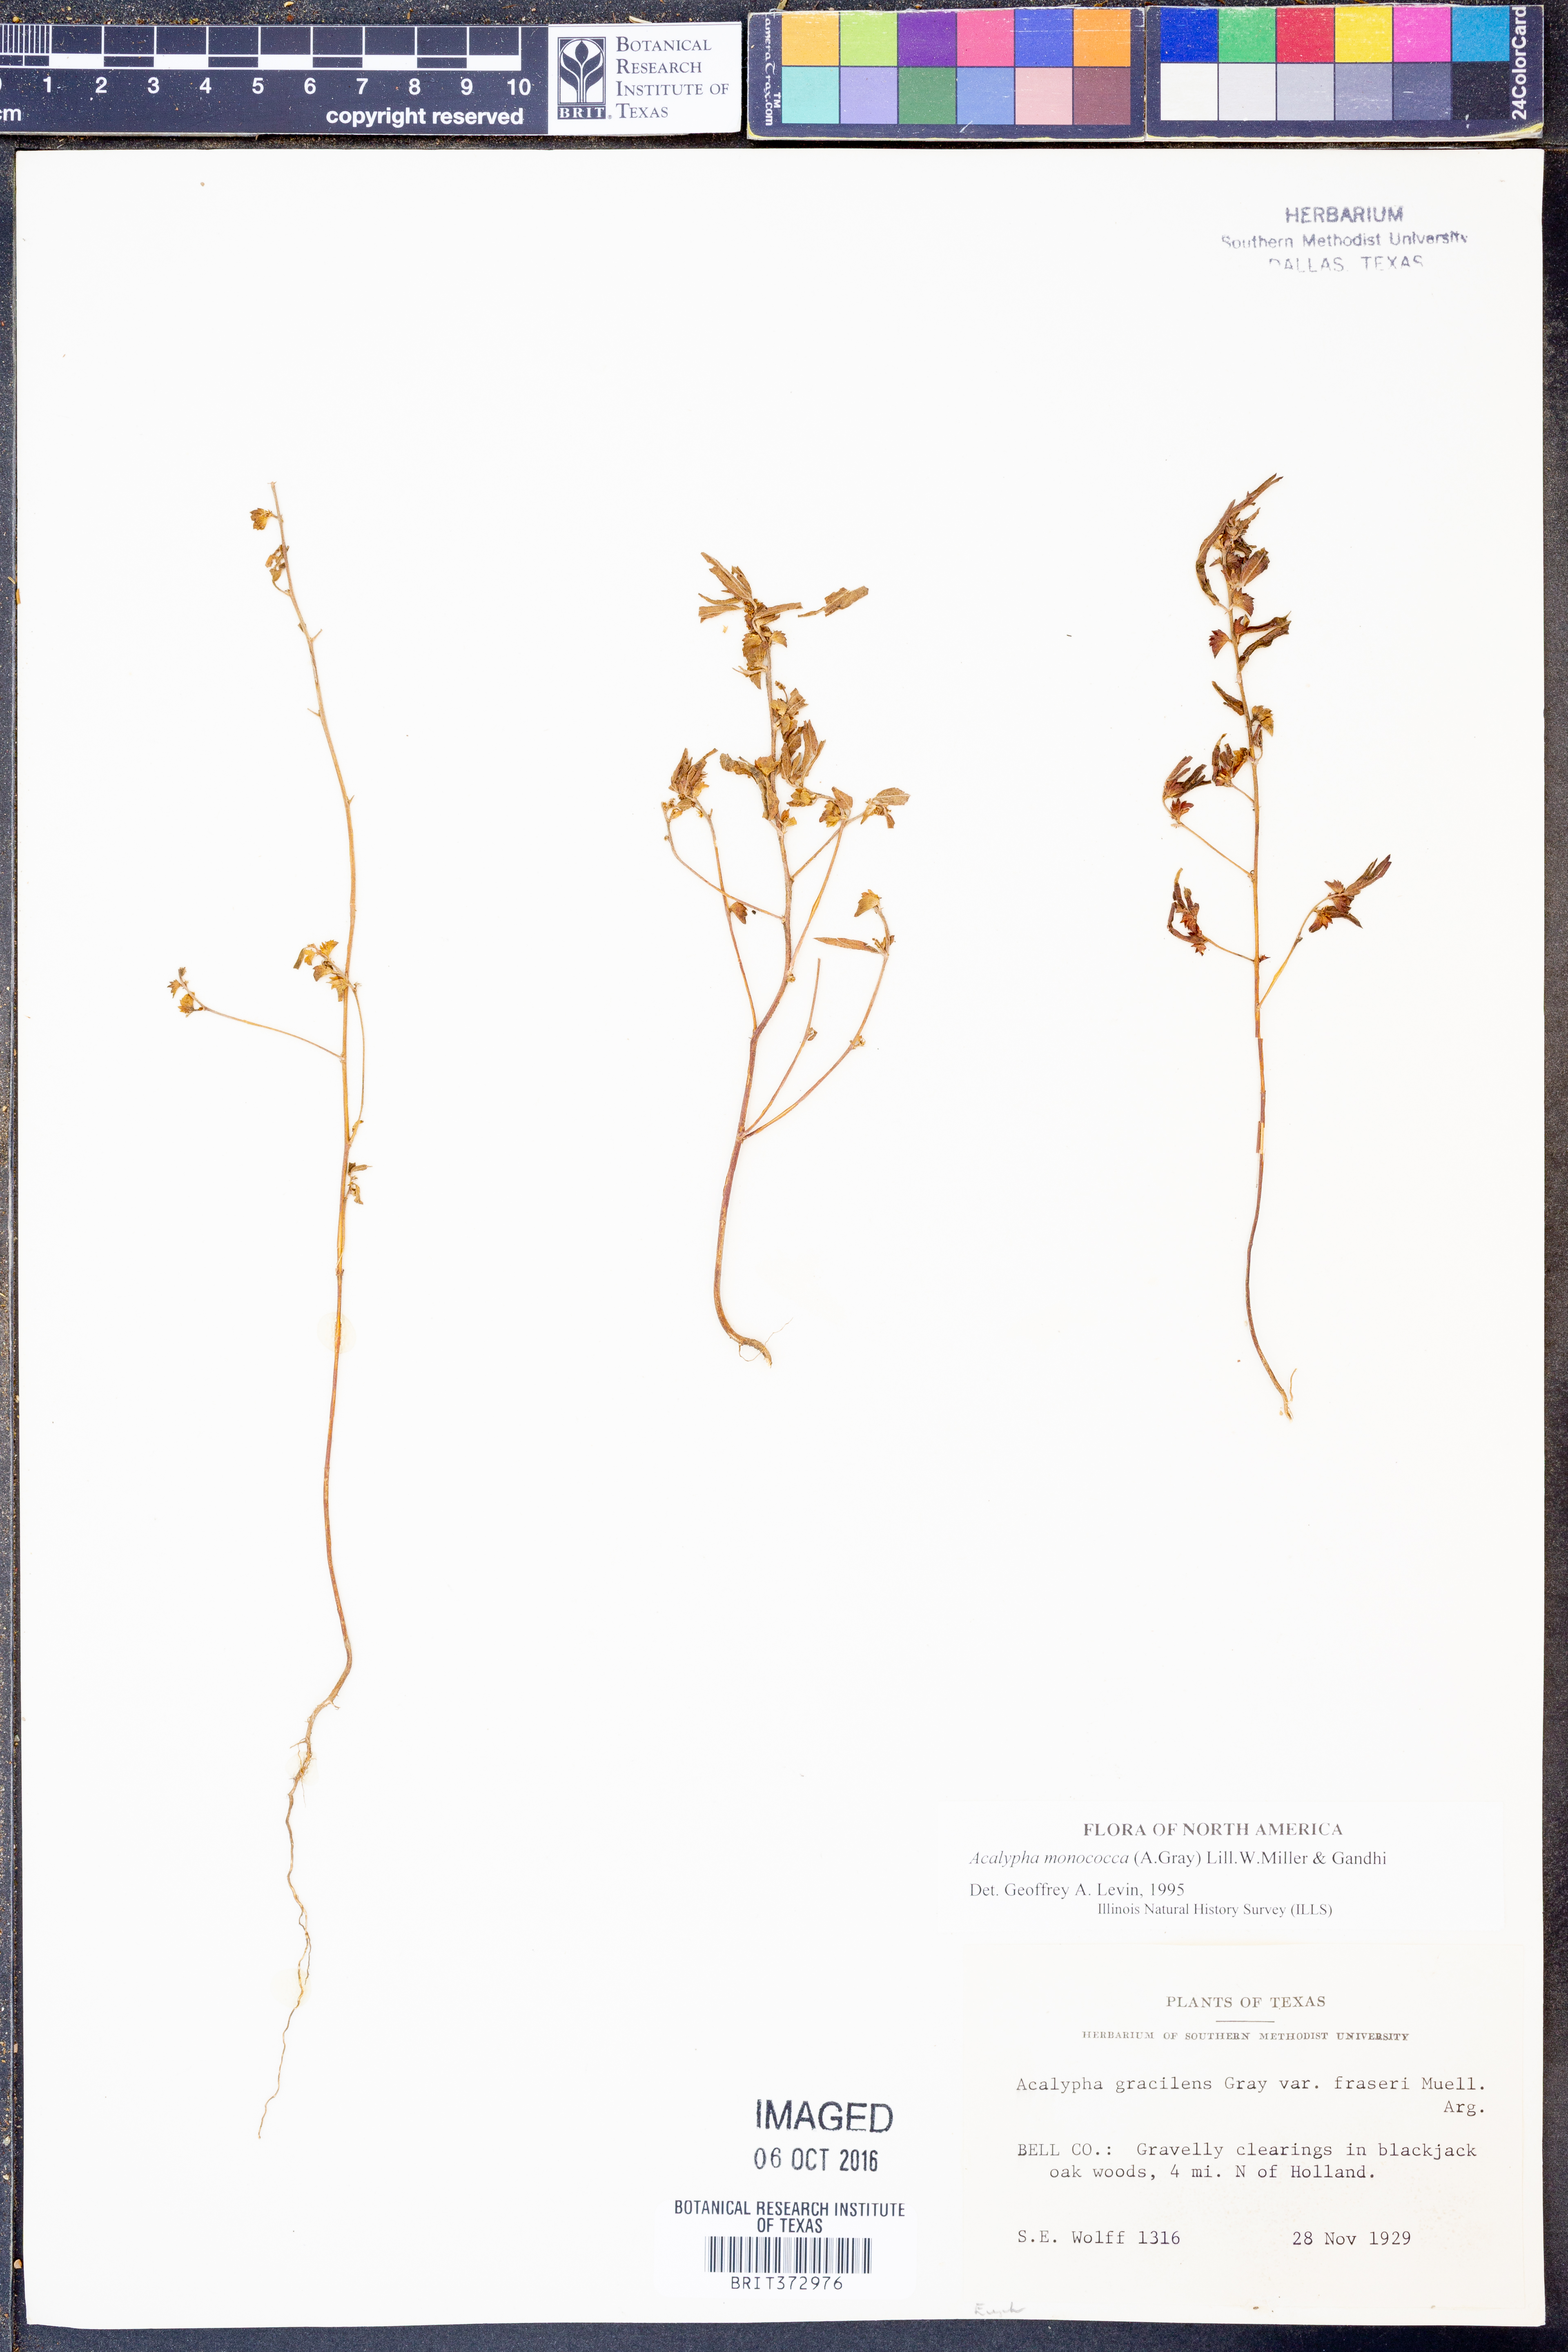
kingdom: Plantae
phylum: Tracheophyta
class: Magnoliopsida
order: Malpighiales
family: Euphorbiaceae
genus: Acalypha
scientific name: Acalypha monococca
